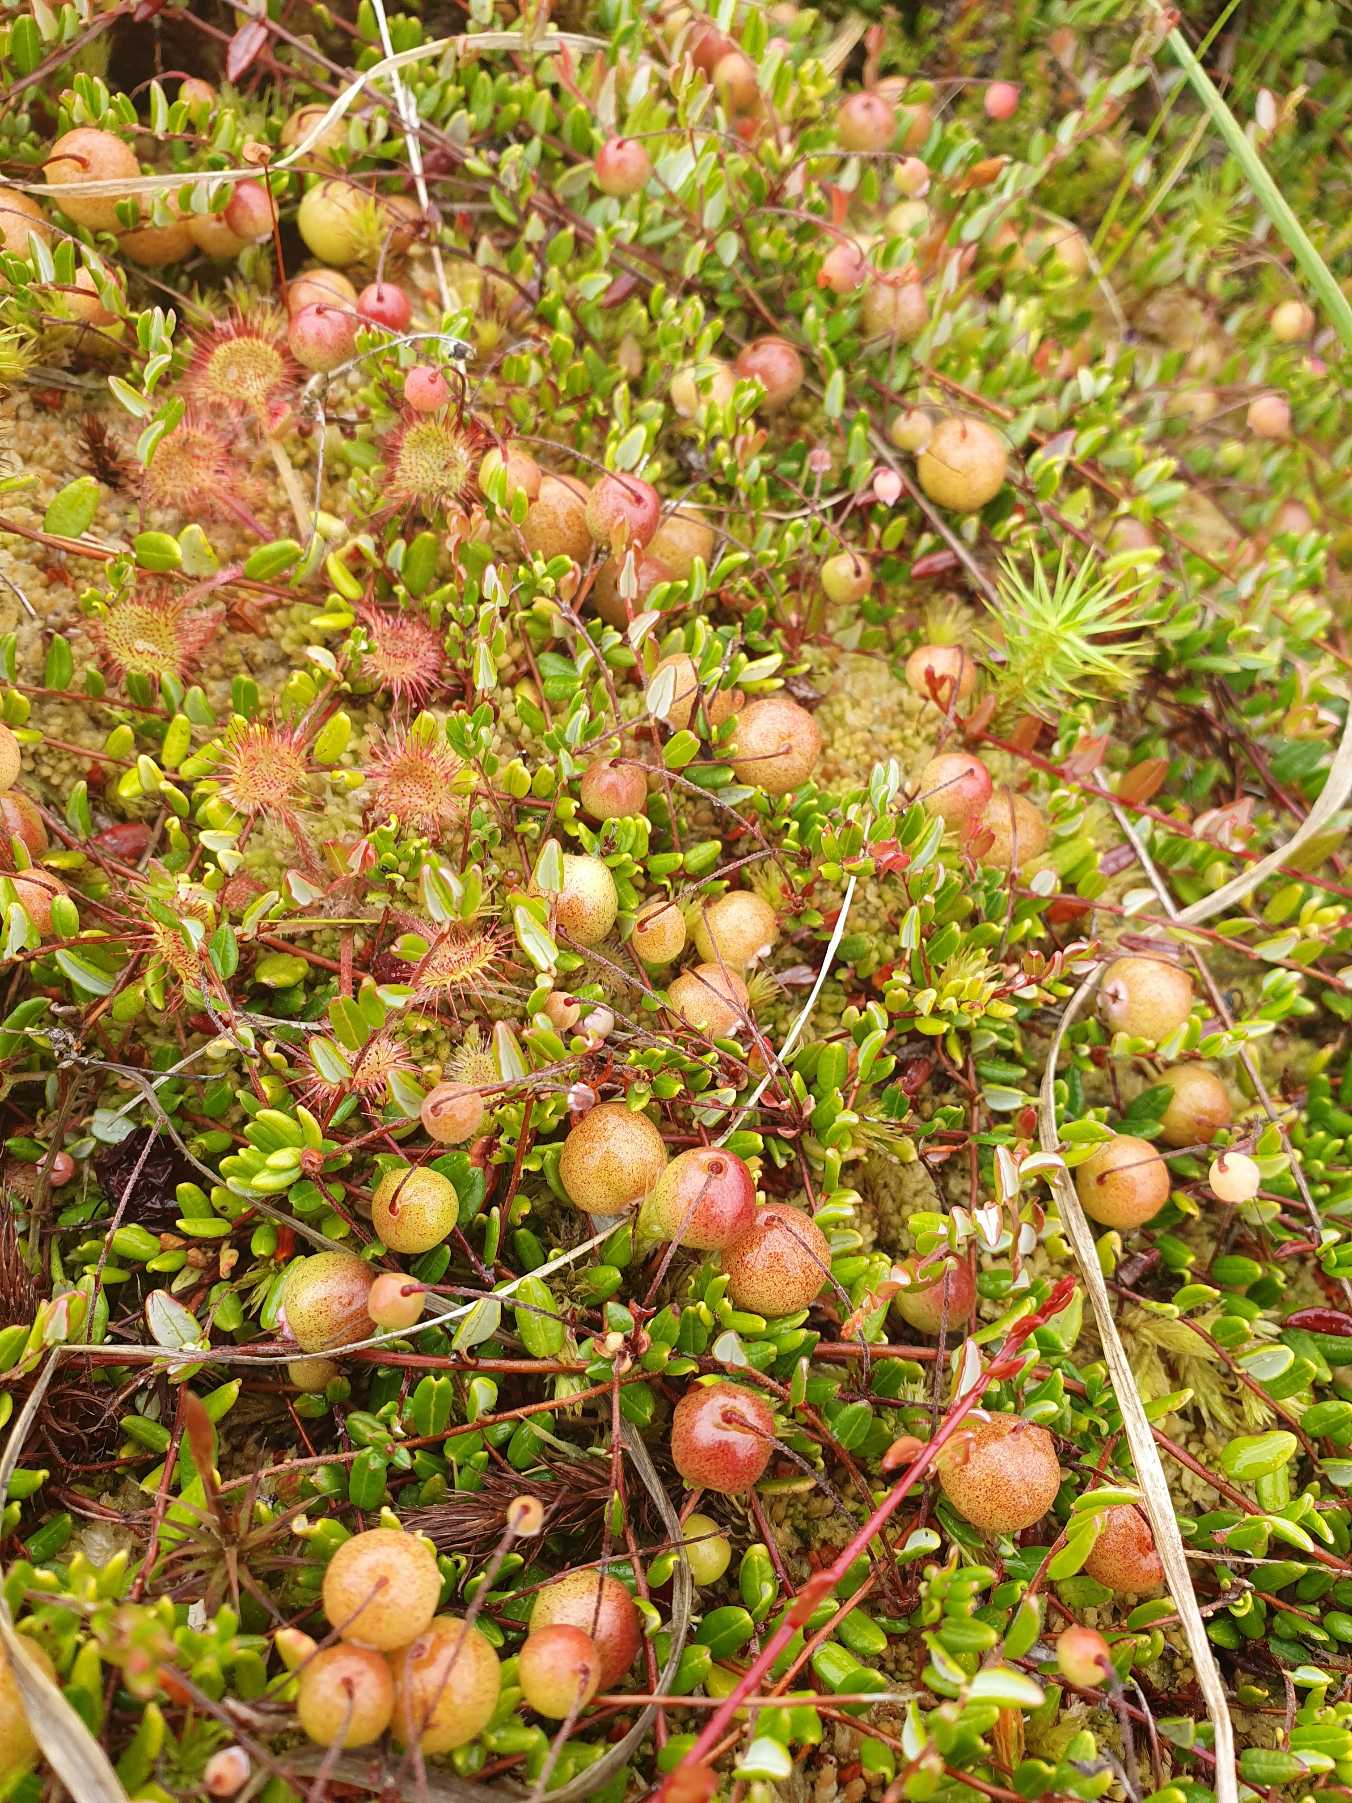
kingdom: Plantae
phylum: Tracheophyta
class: Magnoliopsida
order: Ericales
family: Ericaceae
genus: Vaccinium
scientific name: Vaccinium oxycoccos
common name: Tranebær
